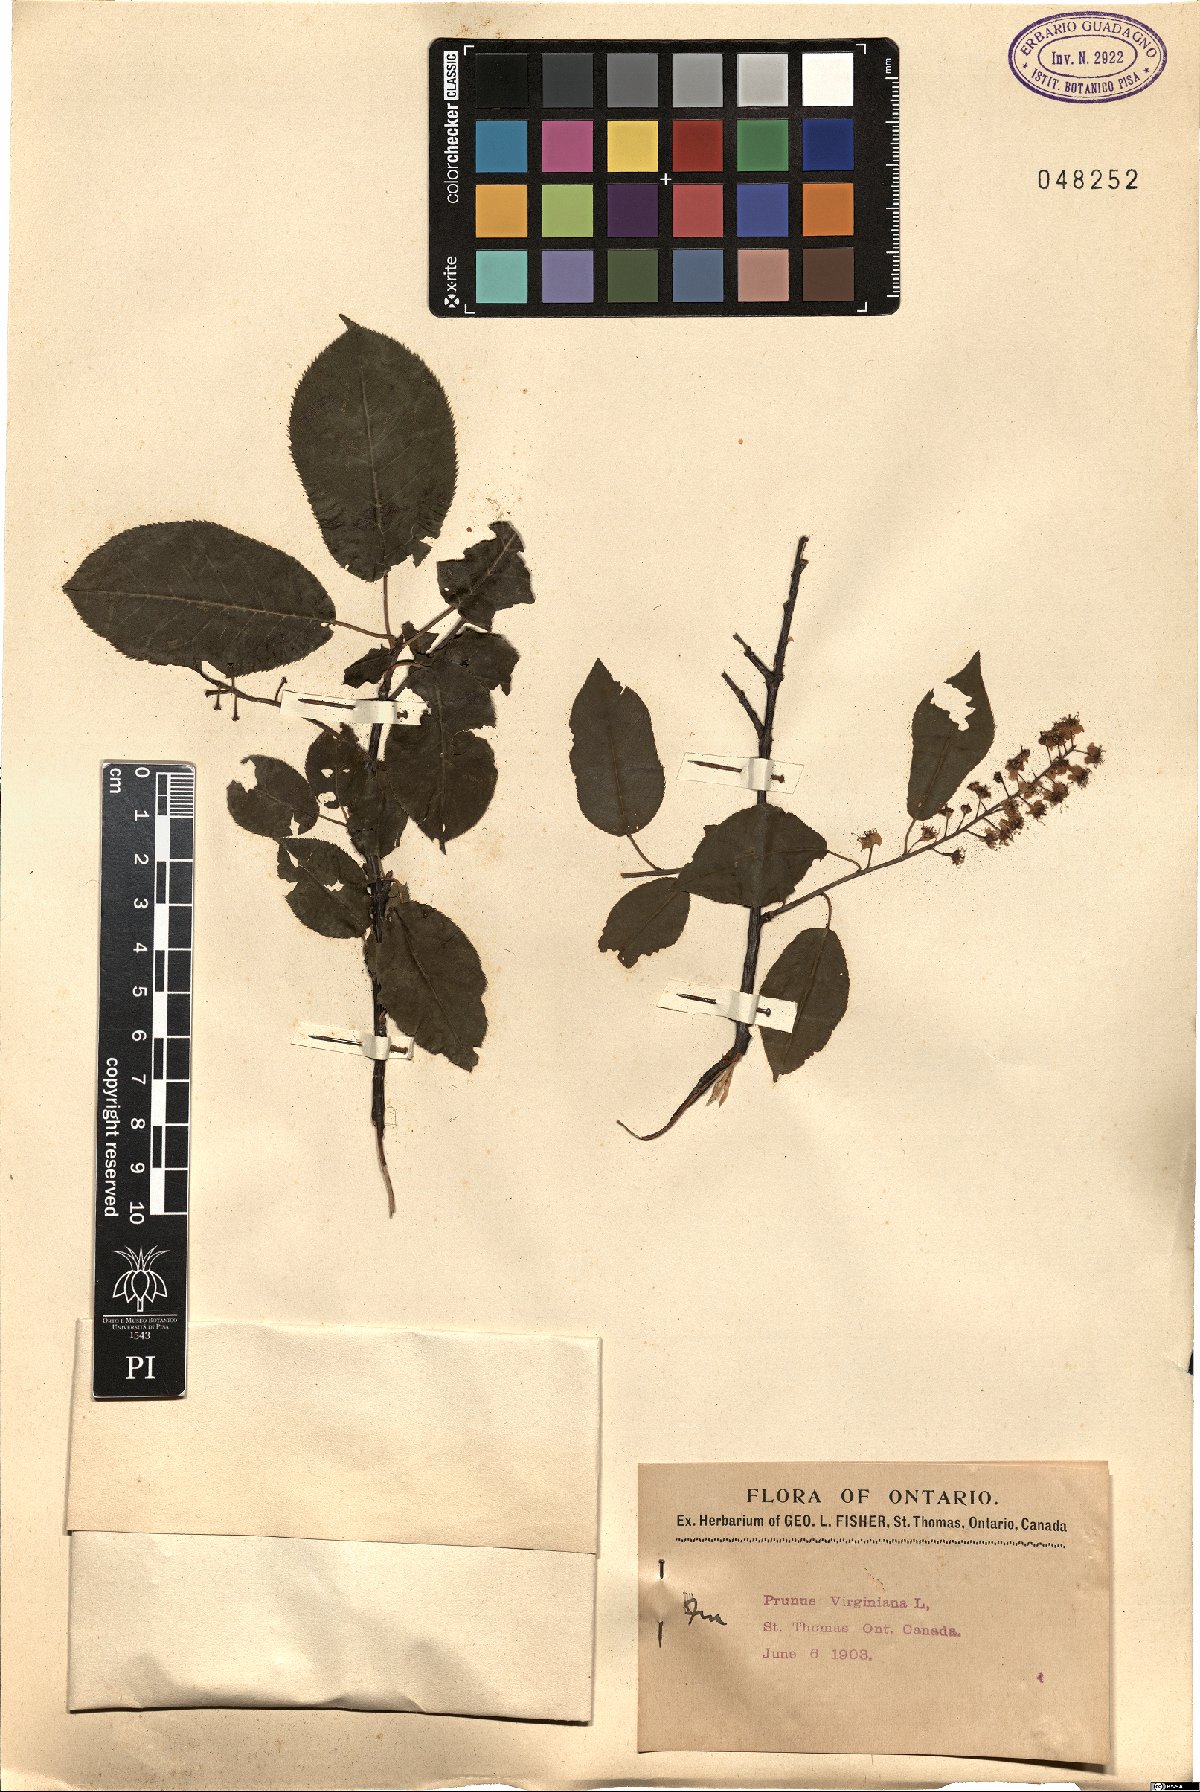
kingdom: Plantae
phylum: Tracheophyta
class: Magnoliopsida
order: Rosales
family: Rosaceae
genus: Prunus
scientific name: Prunus virginiana
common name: Chokecherry
